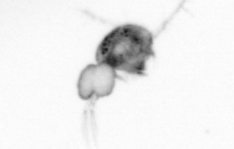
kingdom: Animalia
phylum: Arthropoda
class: Copepoda
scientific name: Copepoda
